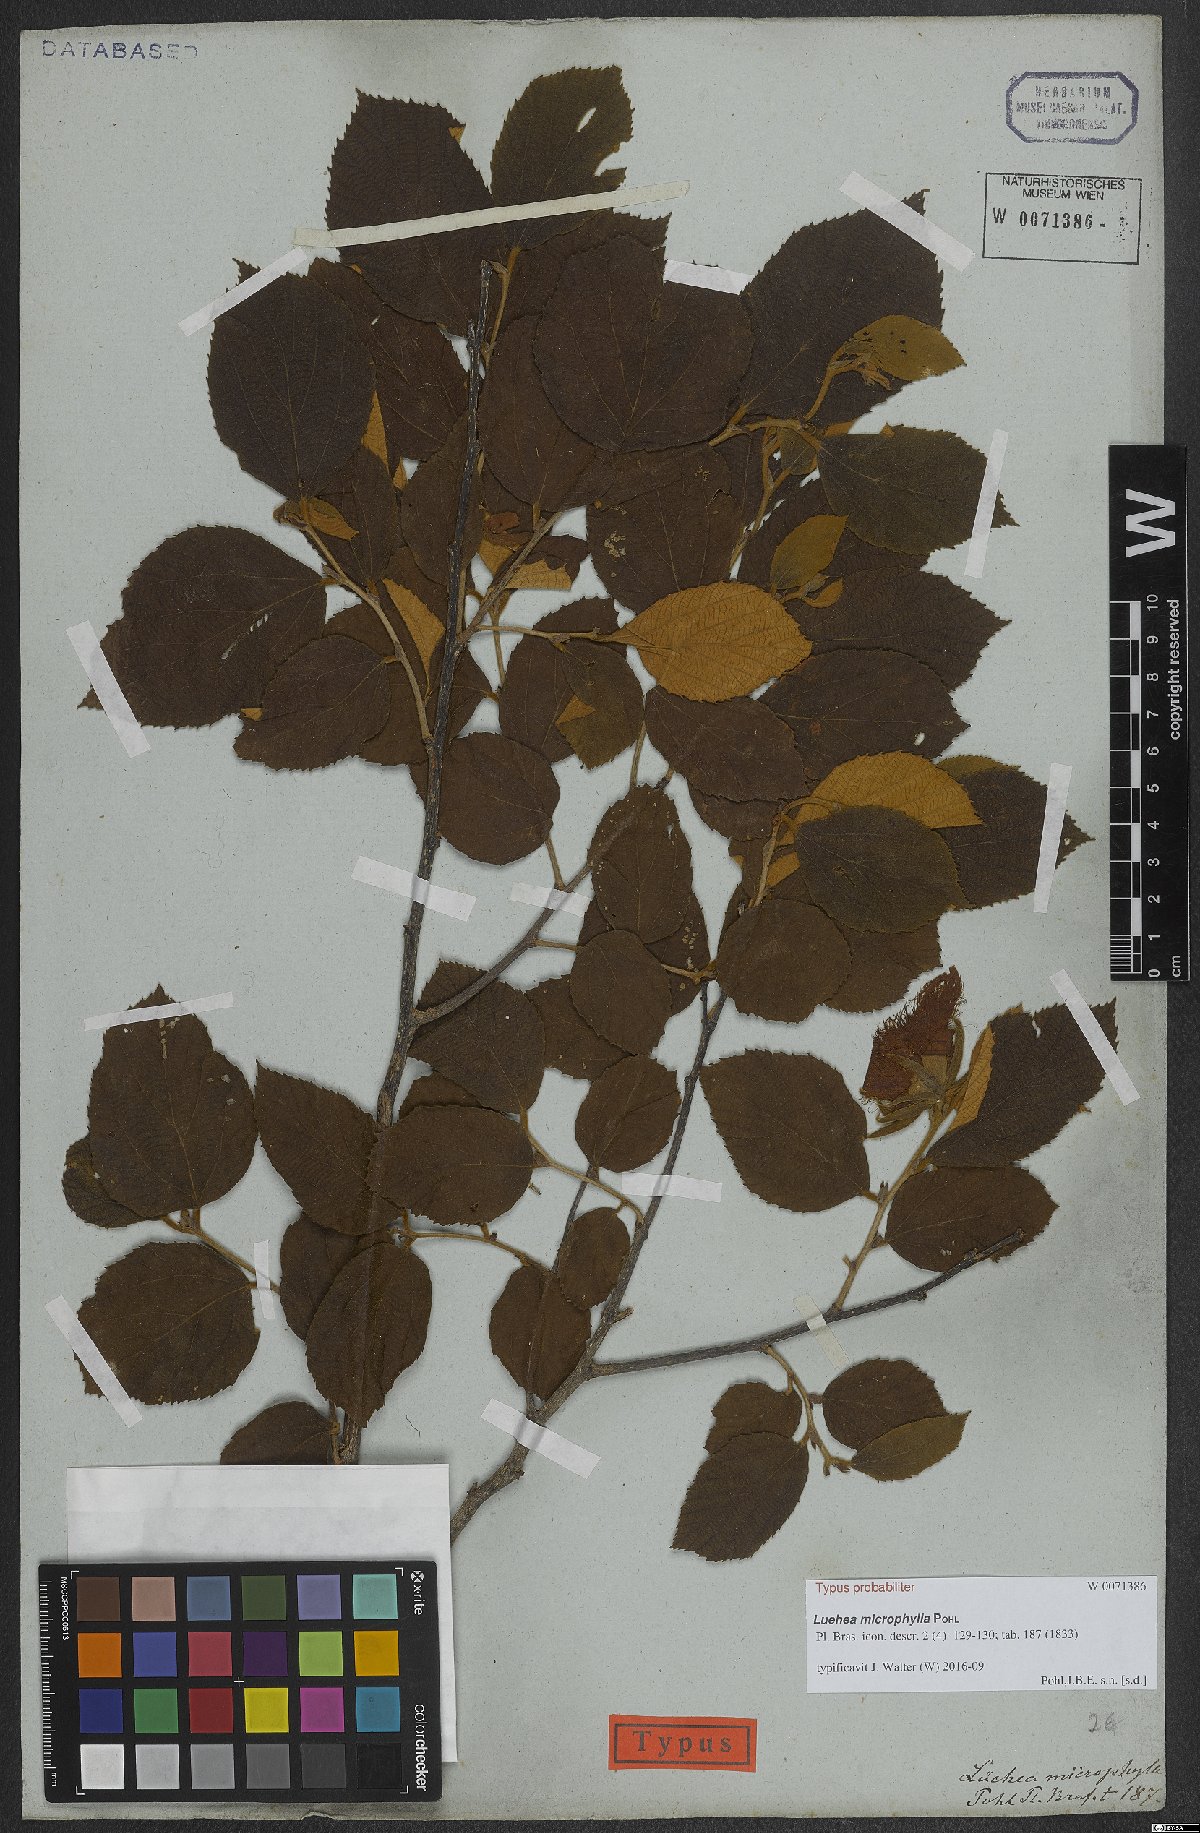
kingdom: Plantae
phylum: Tracheophyta
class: Magnoliopsida
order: Malvales
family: Malvaceae
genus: Luehea
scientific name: Luehea candicans
